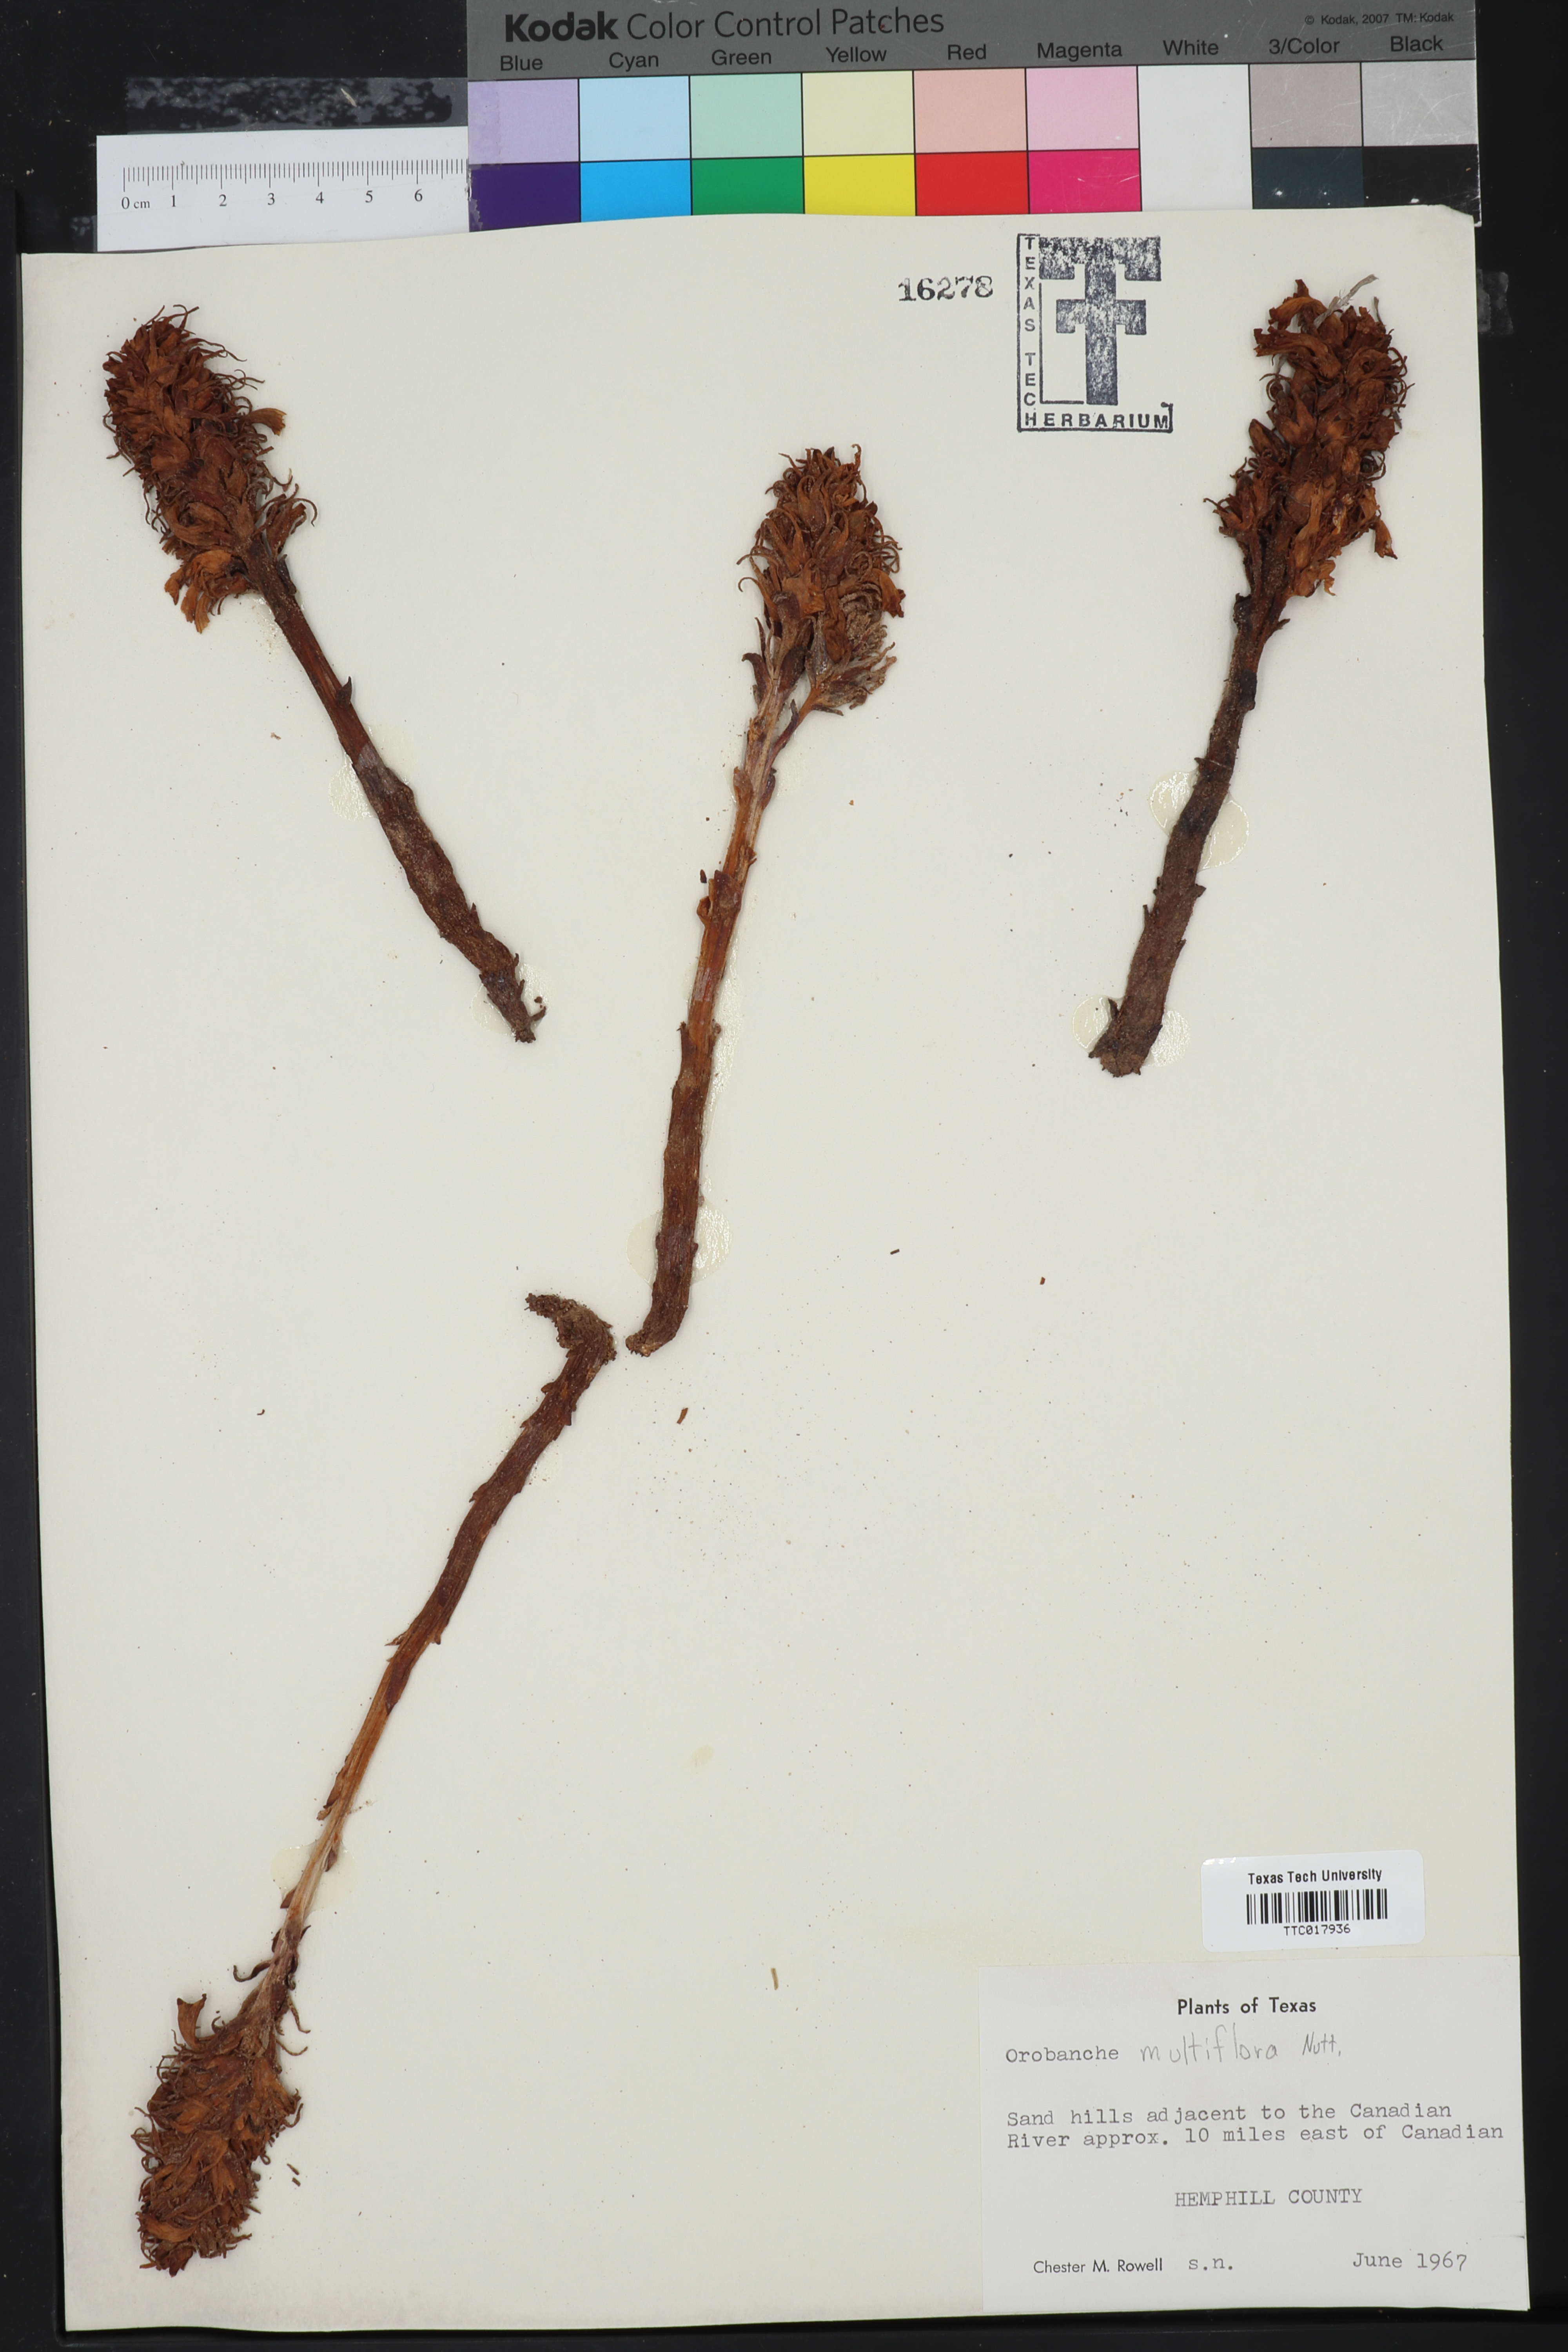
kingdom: Plantae
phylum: Tracheophyta
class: Magnoliopsida
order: Lamiales
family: Orobanchaceae
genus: Aphyllon
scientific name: Aphyllon multiflorum
